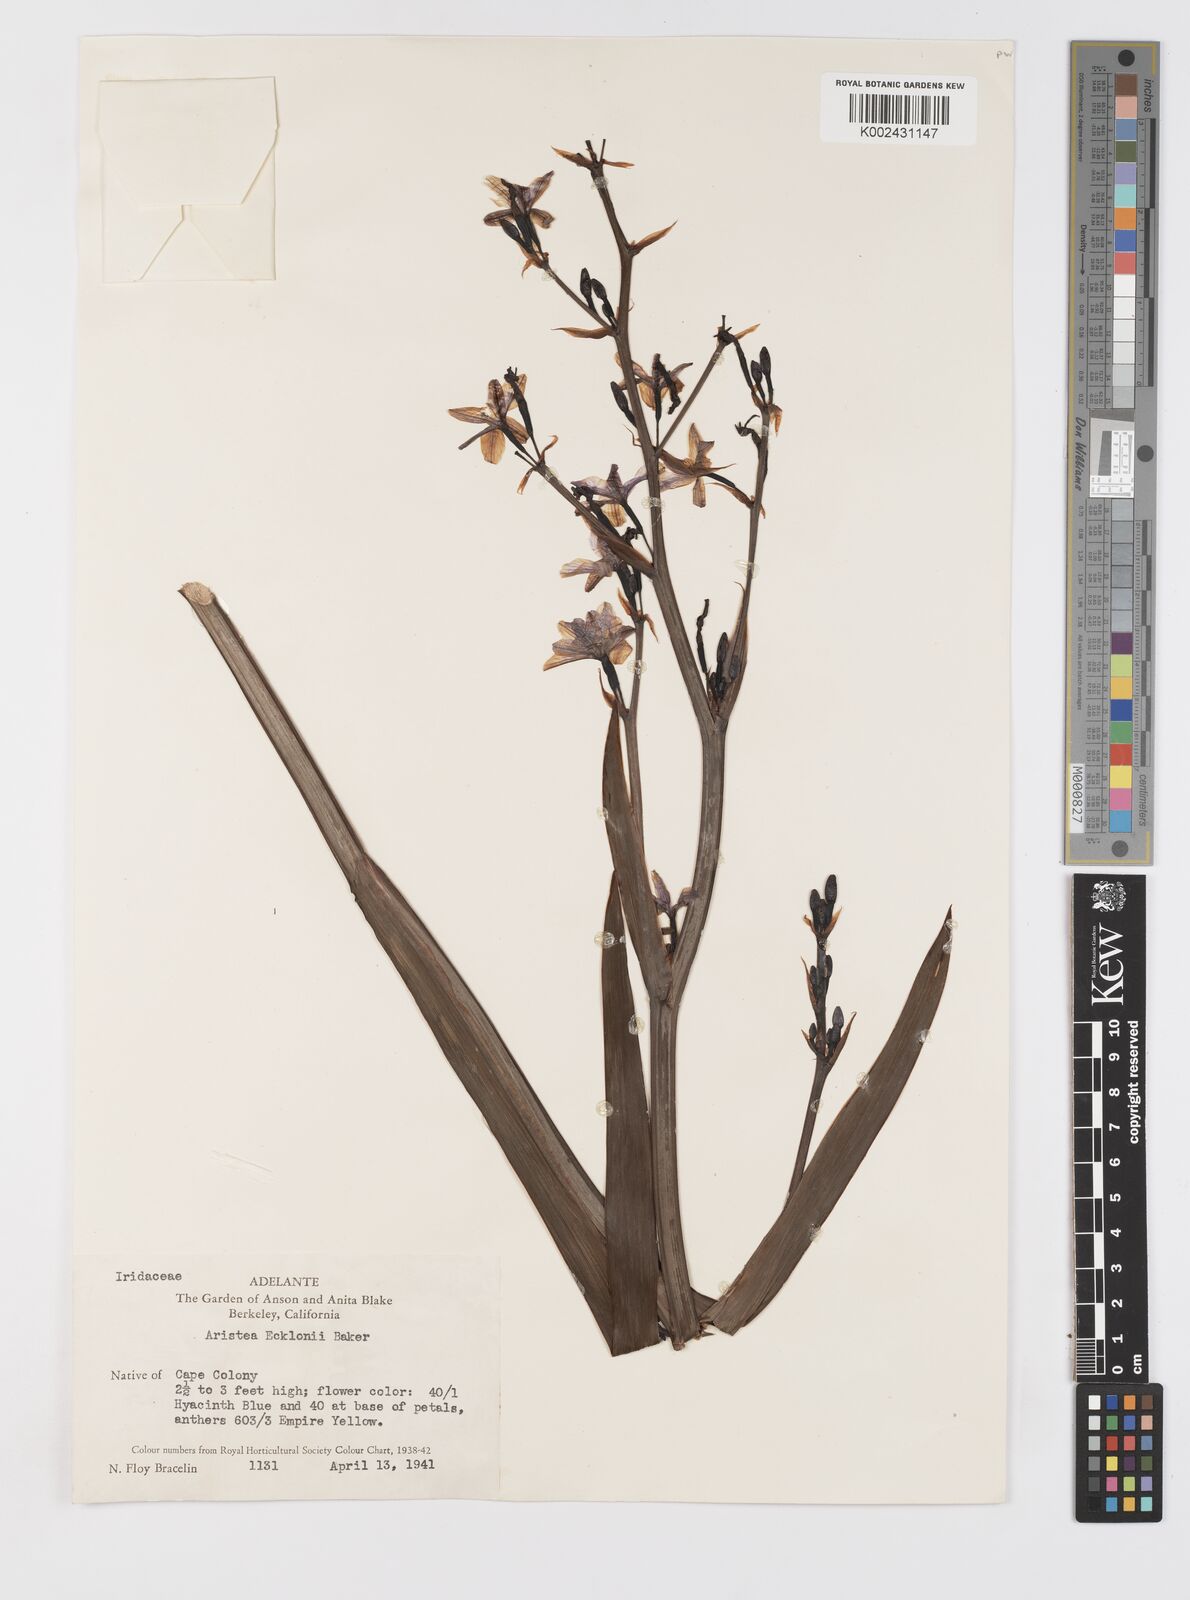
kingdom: Plantae
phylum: Tracheophyta
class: Liliopsida
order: Asparagales
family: Iridaceae
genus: Aristea
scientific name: Aristea ecklonii
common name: Blue corn-lily
